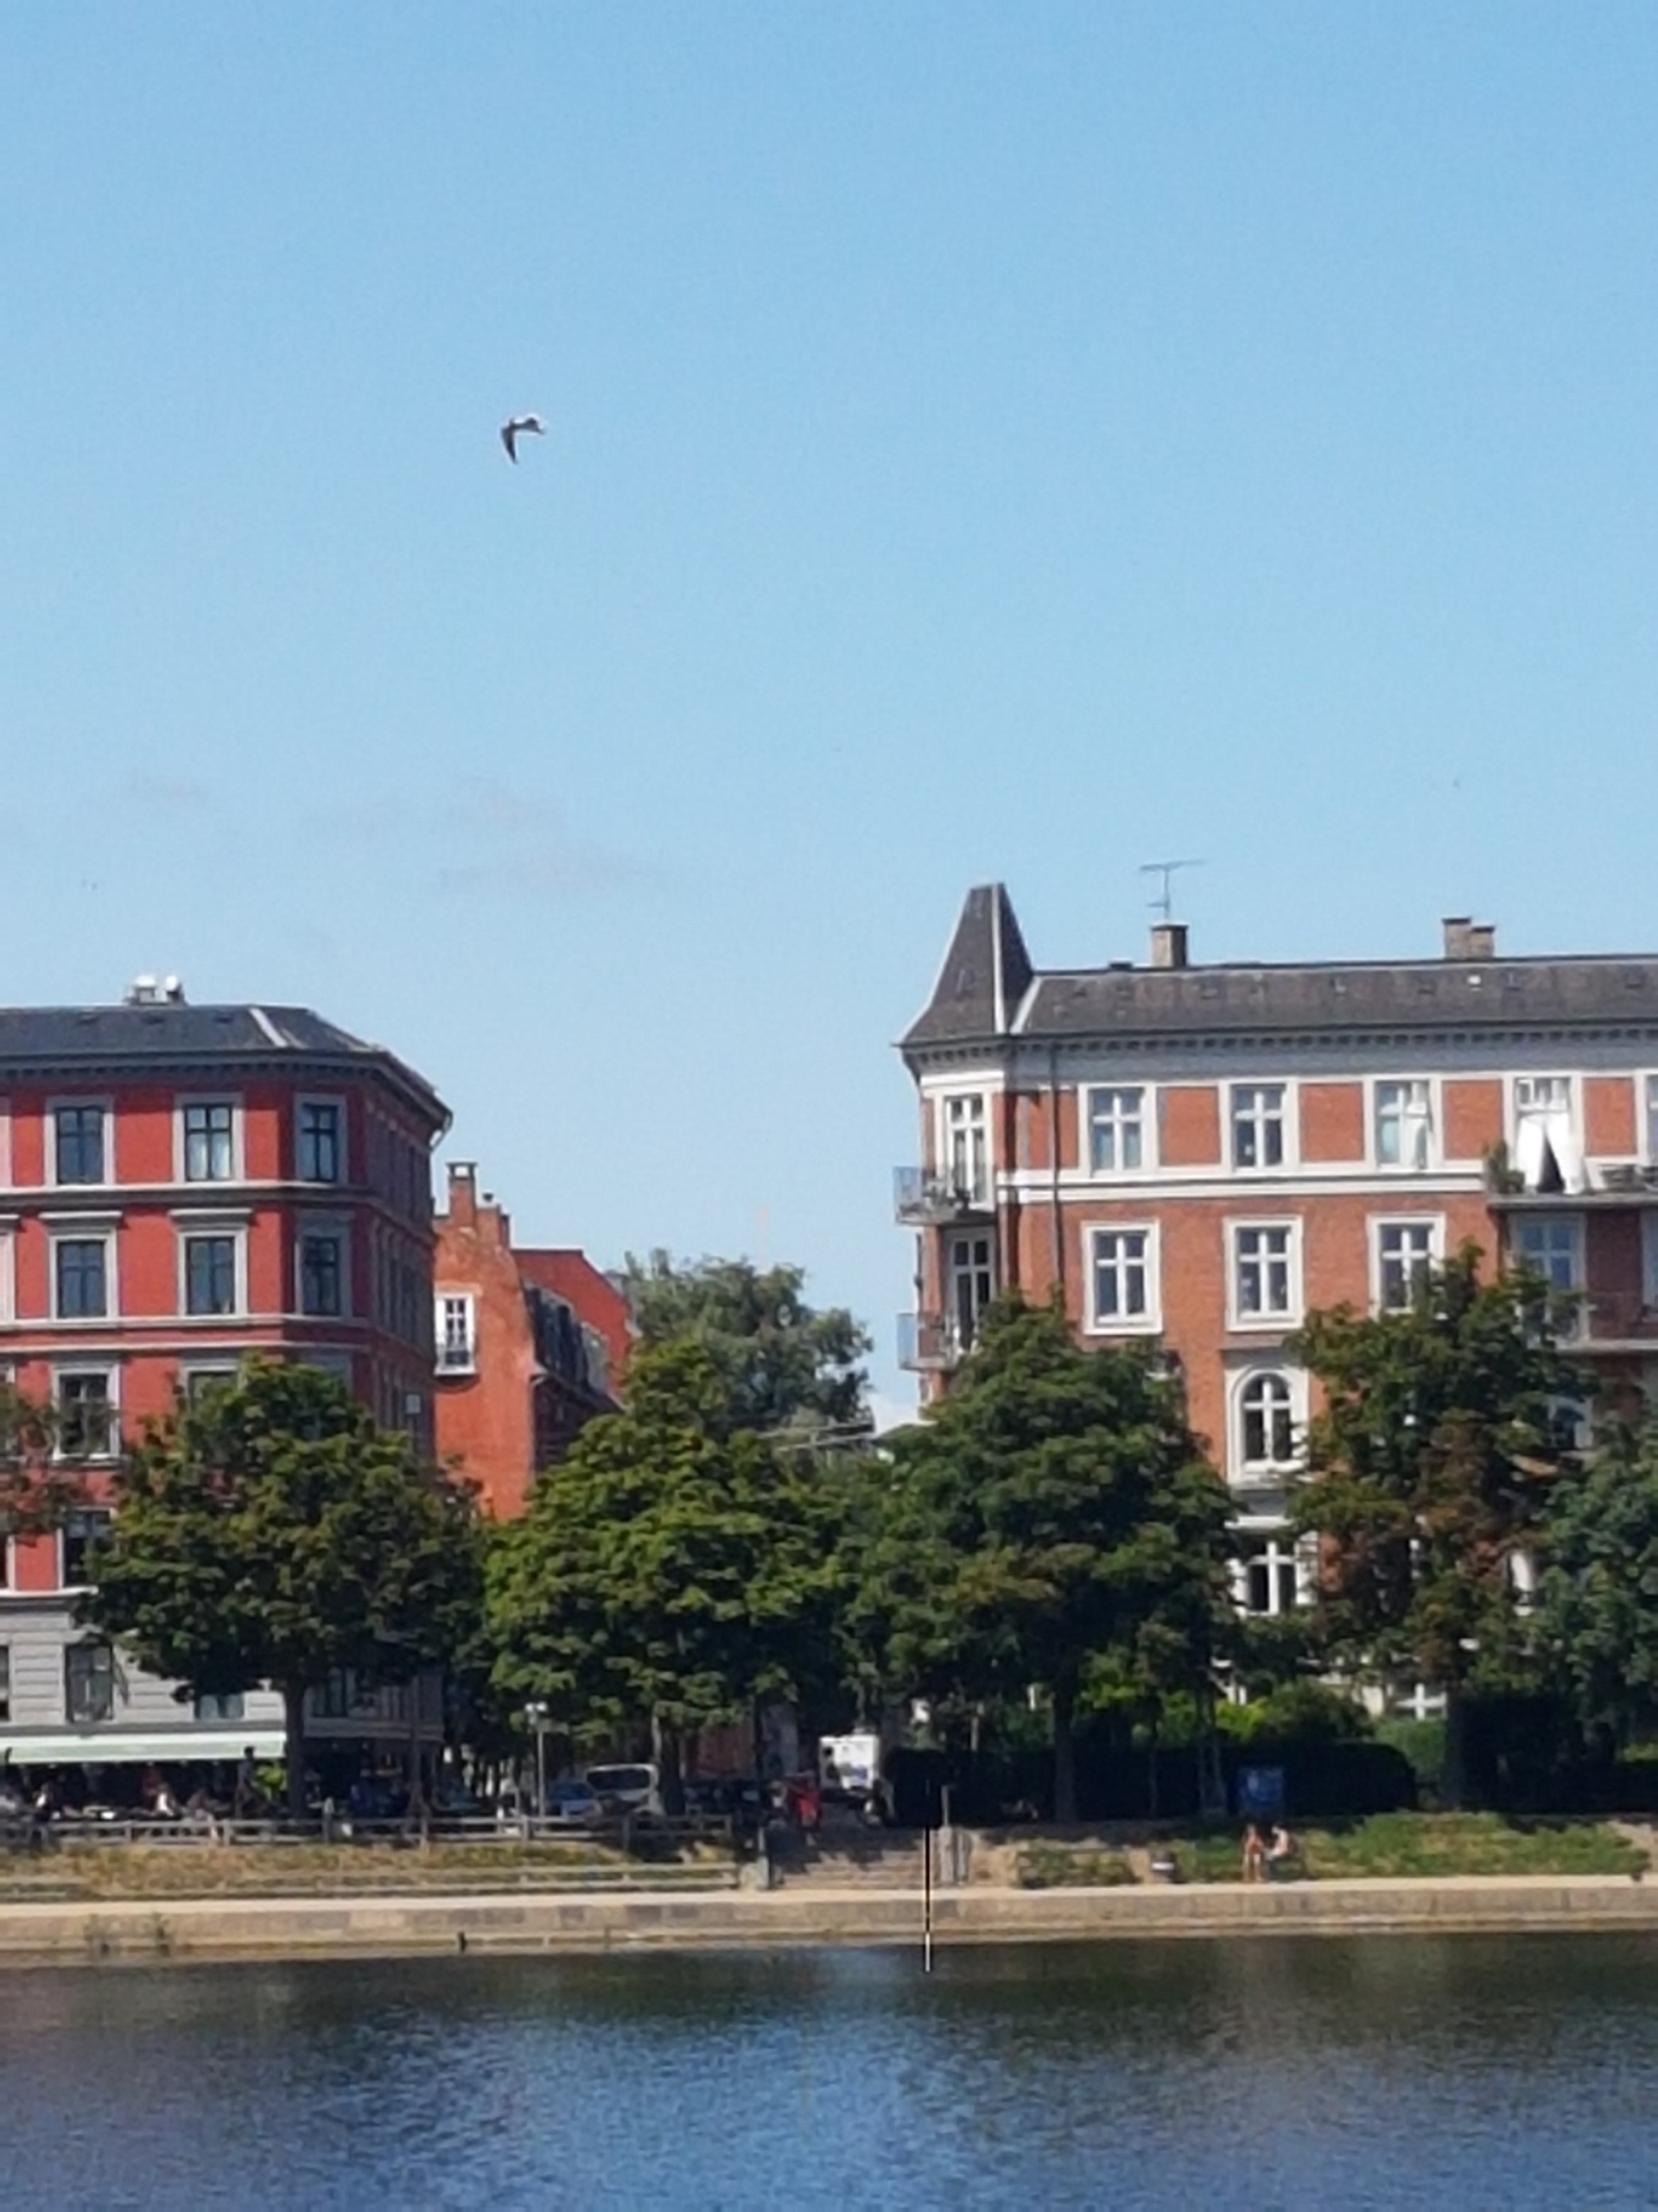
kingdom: Animalia
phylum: Chordata
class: Aves
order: Charadriiformes
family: Laridae
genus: Hydroprogne
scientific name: Hydroprogne caspia
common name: Rovterne
